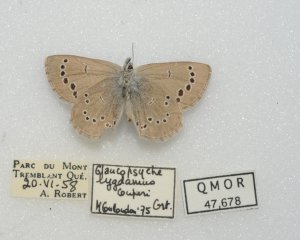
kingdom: Animalia
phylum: Arthropoda
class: Insecta
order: Lepidoptera
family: Lycaenidae
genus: Glaucopsyche
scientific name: Glaucopsyche lygdamus
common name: Silvery Blue
